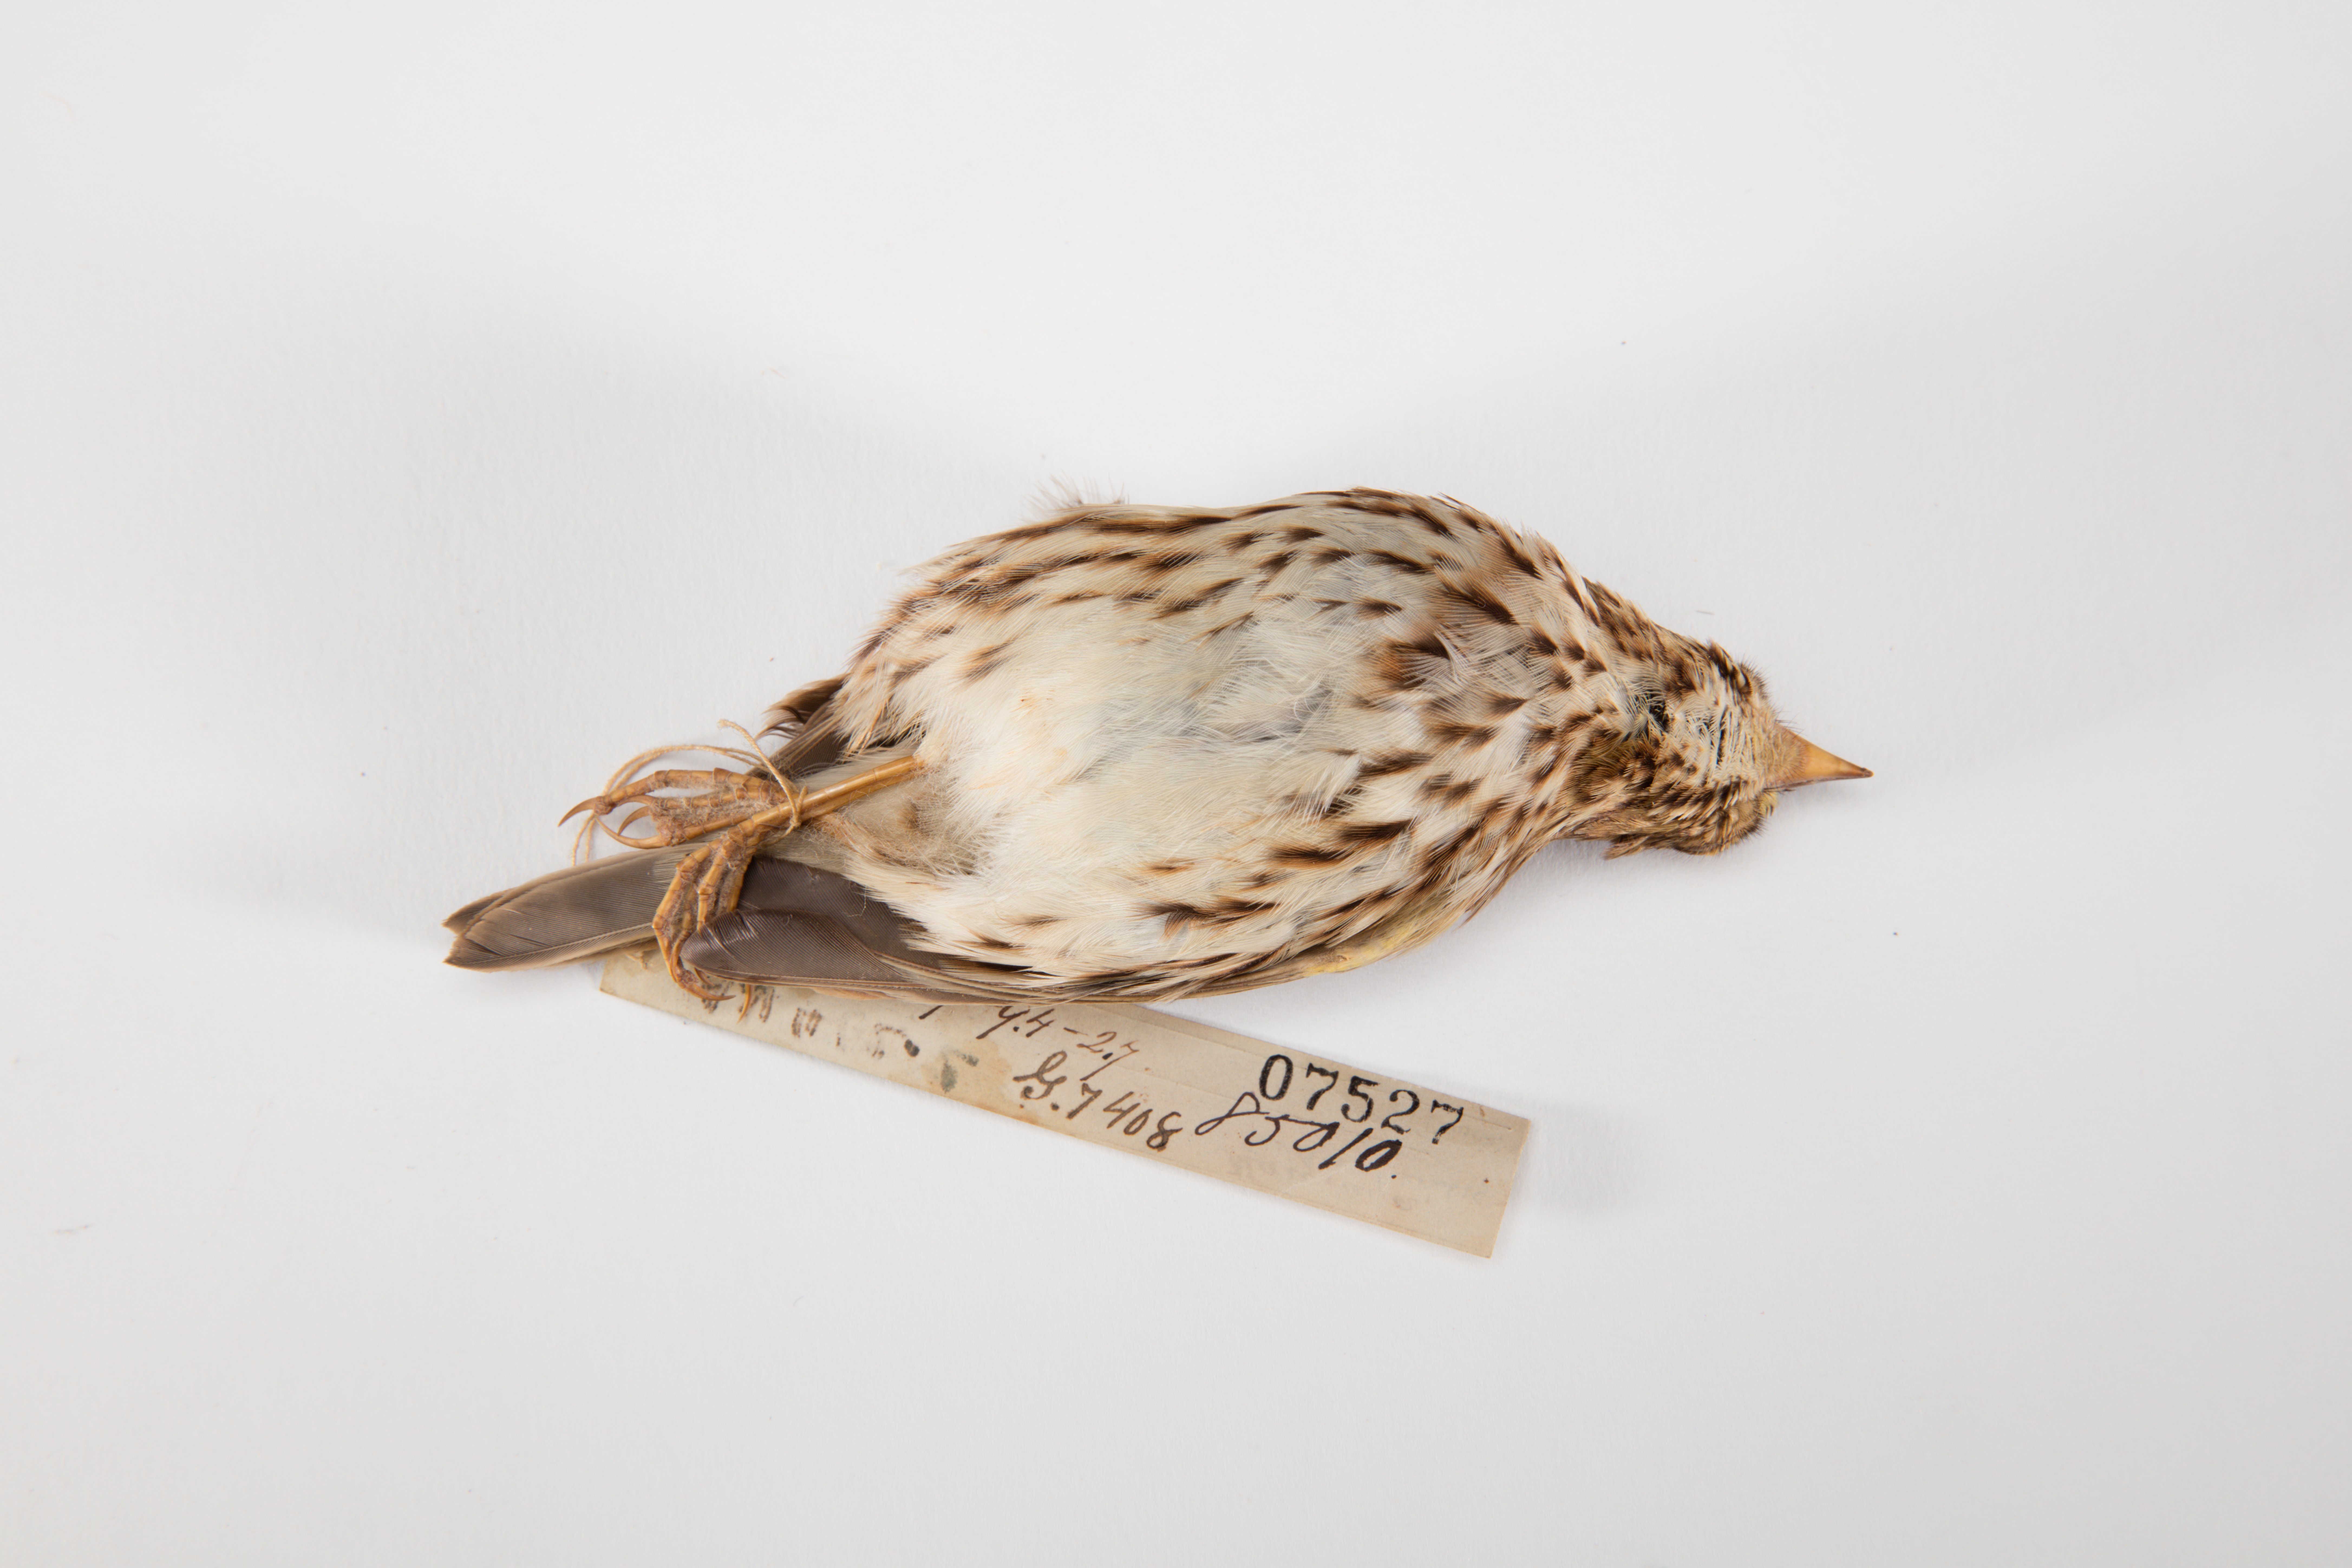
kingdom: Animalia
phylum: Chordata
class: Aves
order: Passeriformes
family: Passerellidae
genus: Passerculus
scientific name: Passerculus sandwichensis
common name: Savannah sparrow
